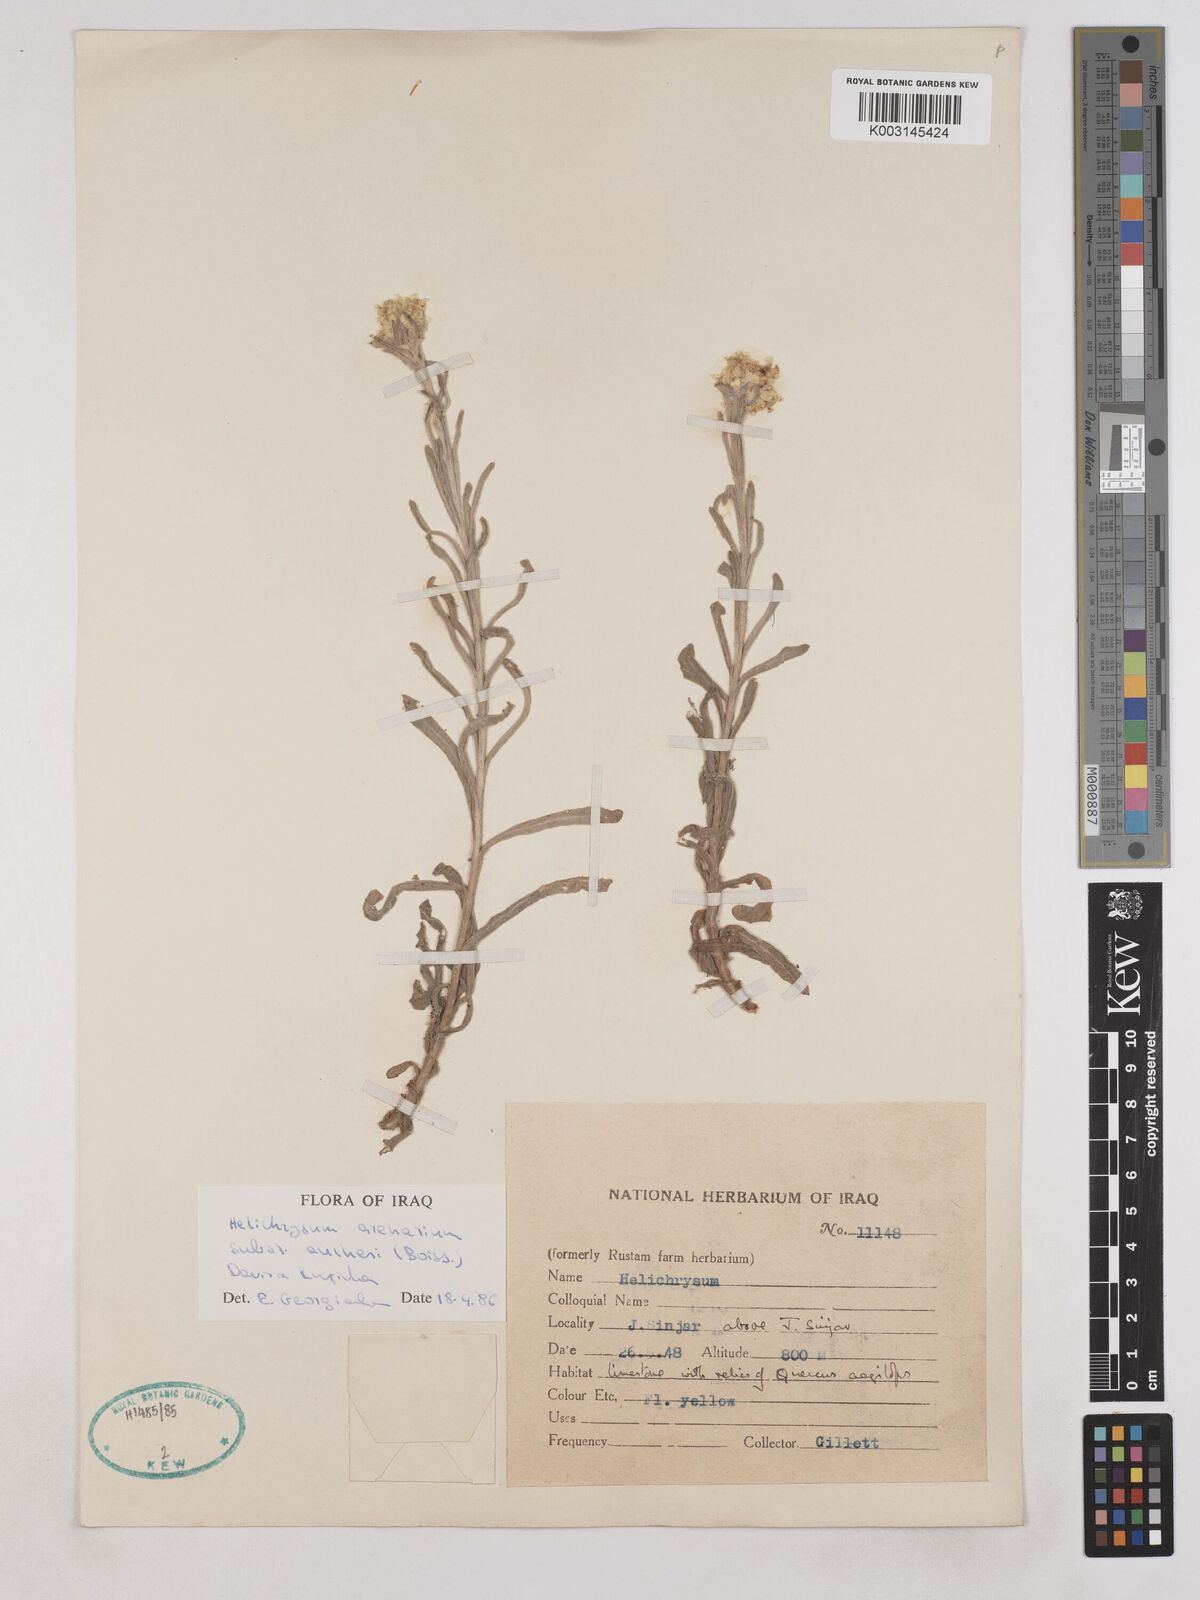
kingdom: Plantae
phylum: Tracheophyta
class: Magnoliopsida
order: Asterales
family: Asteraceae
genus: Helichrysum
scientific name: Helichrysum arenarium
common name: Strawflower
